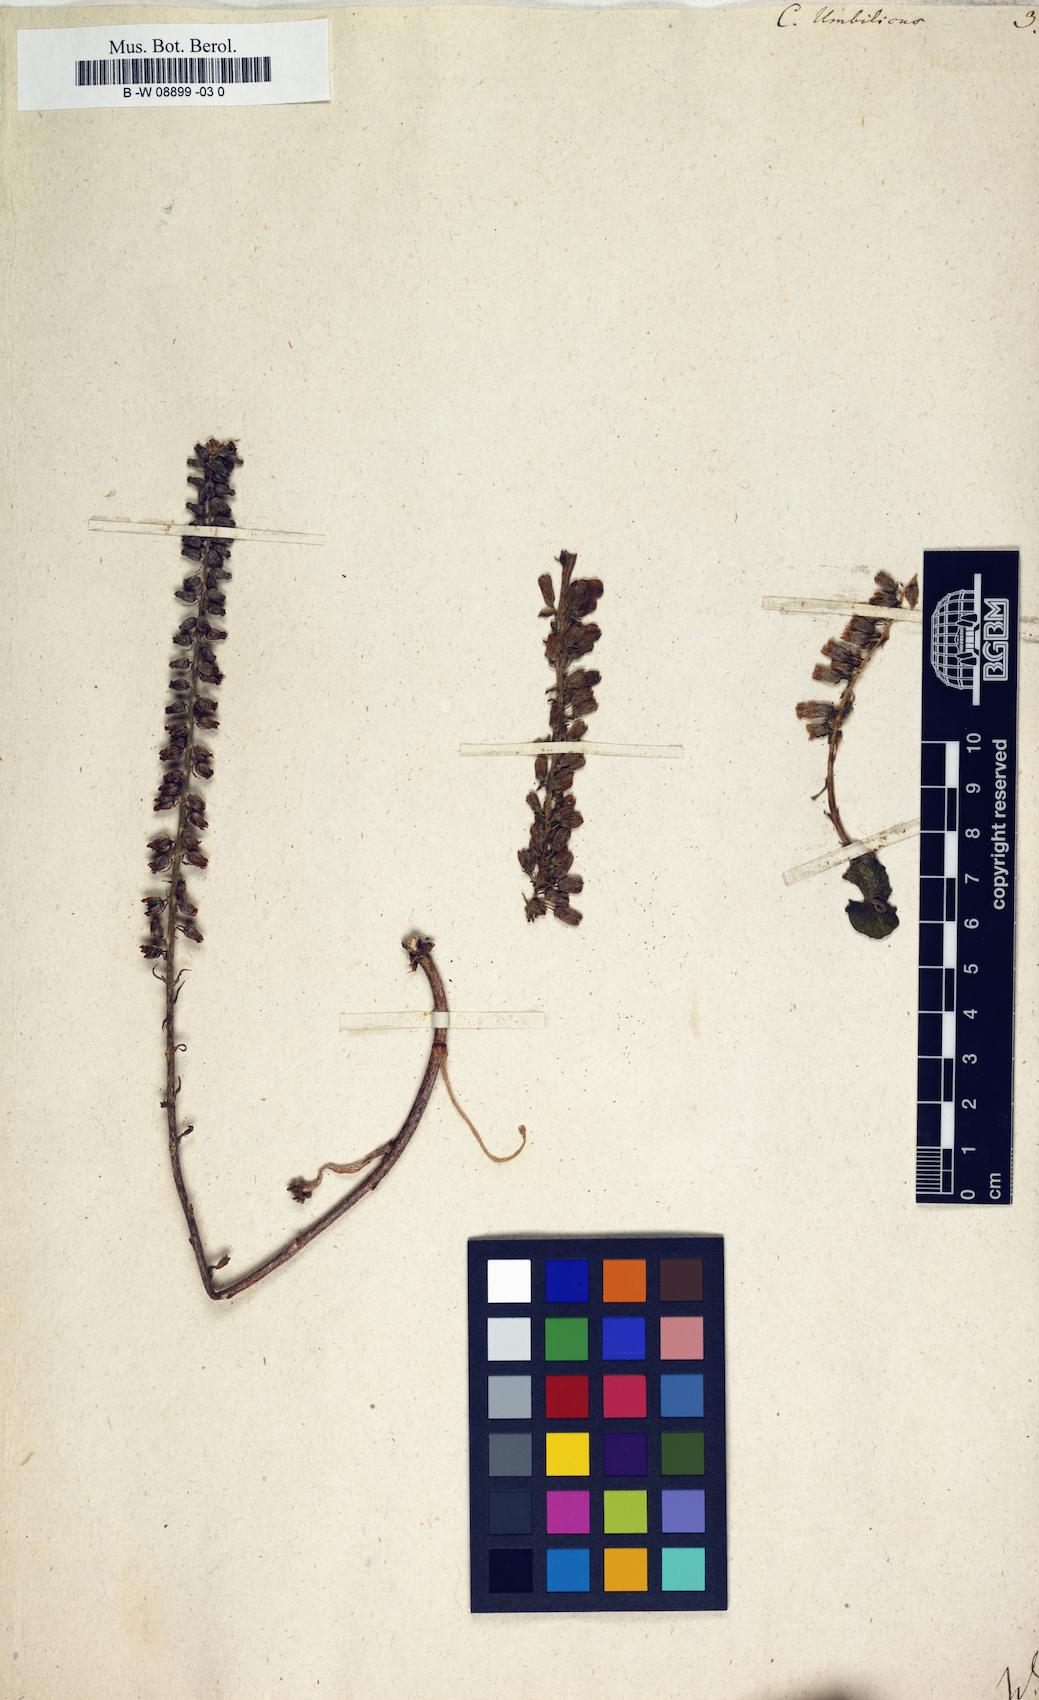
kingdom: Plantae
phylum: Tracheophyta
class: Magnoliopsida
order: Saxifragales
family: Crassulaceae
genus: Umbilicus
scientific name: Umbilicus rupestris
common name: Navelwort
